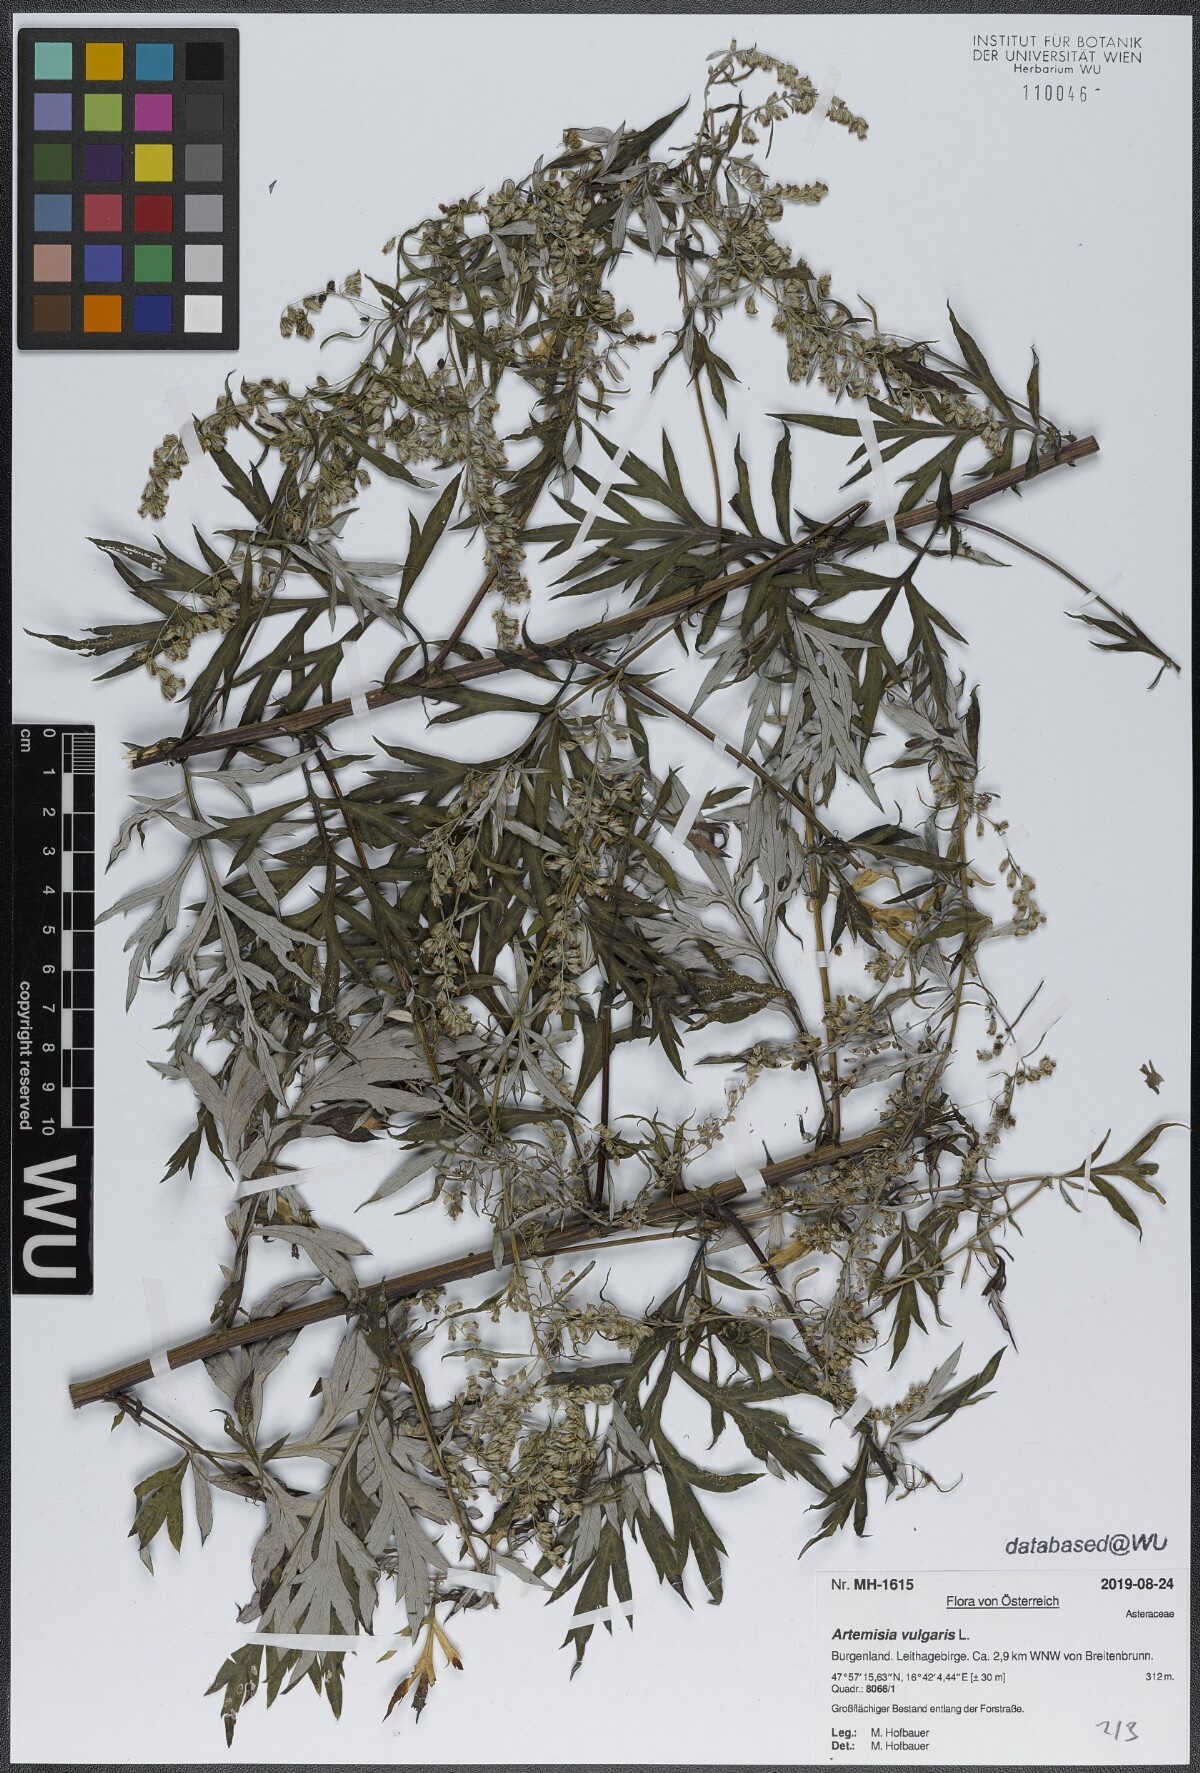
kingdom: Plantae
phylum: Tracheophyta
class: Magnoliopsida
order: Asterales
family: Asteraceae
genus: Artemisia
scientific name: Artemisia vulgaris
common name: Mugwort
